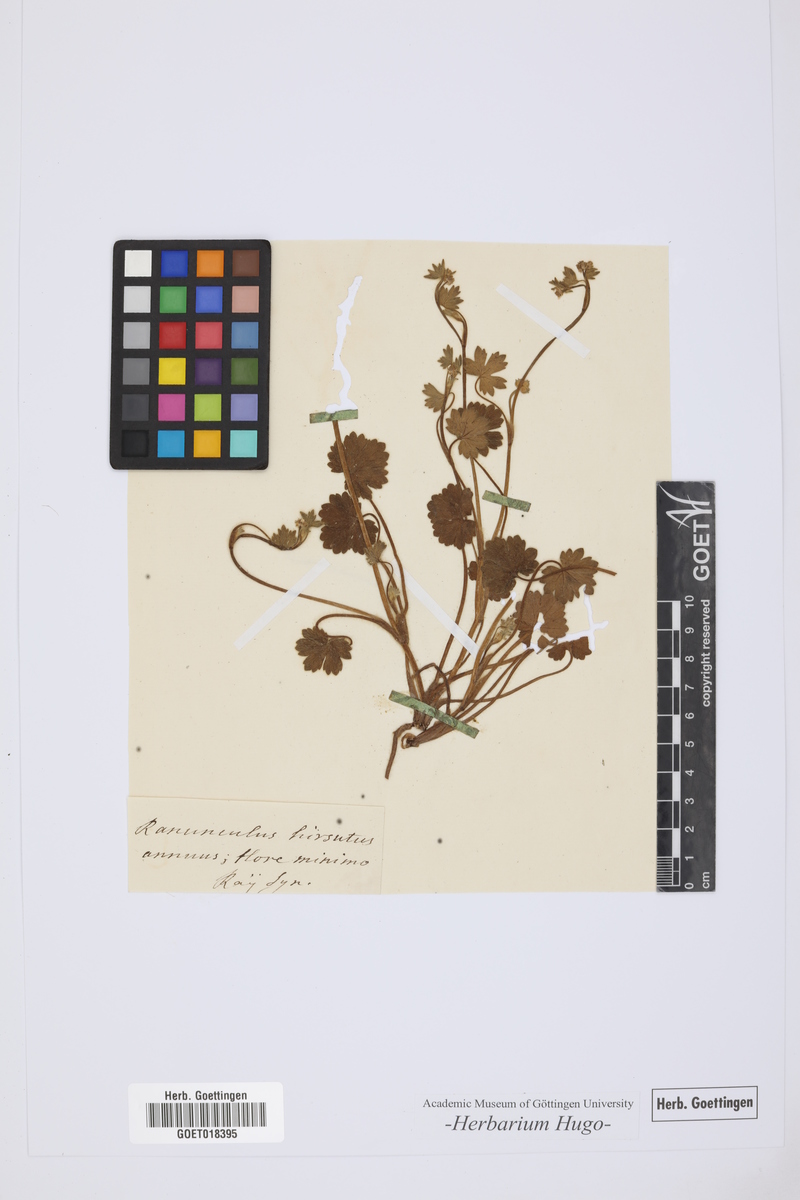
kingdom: Plantae
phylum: Tracheophyta
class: Magnoliopsida
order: Ranunculales
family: Ranunculaceae
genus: Ranunculus
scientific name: Ranunculus
